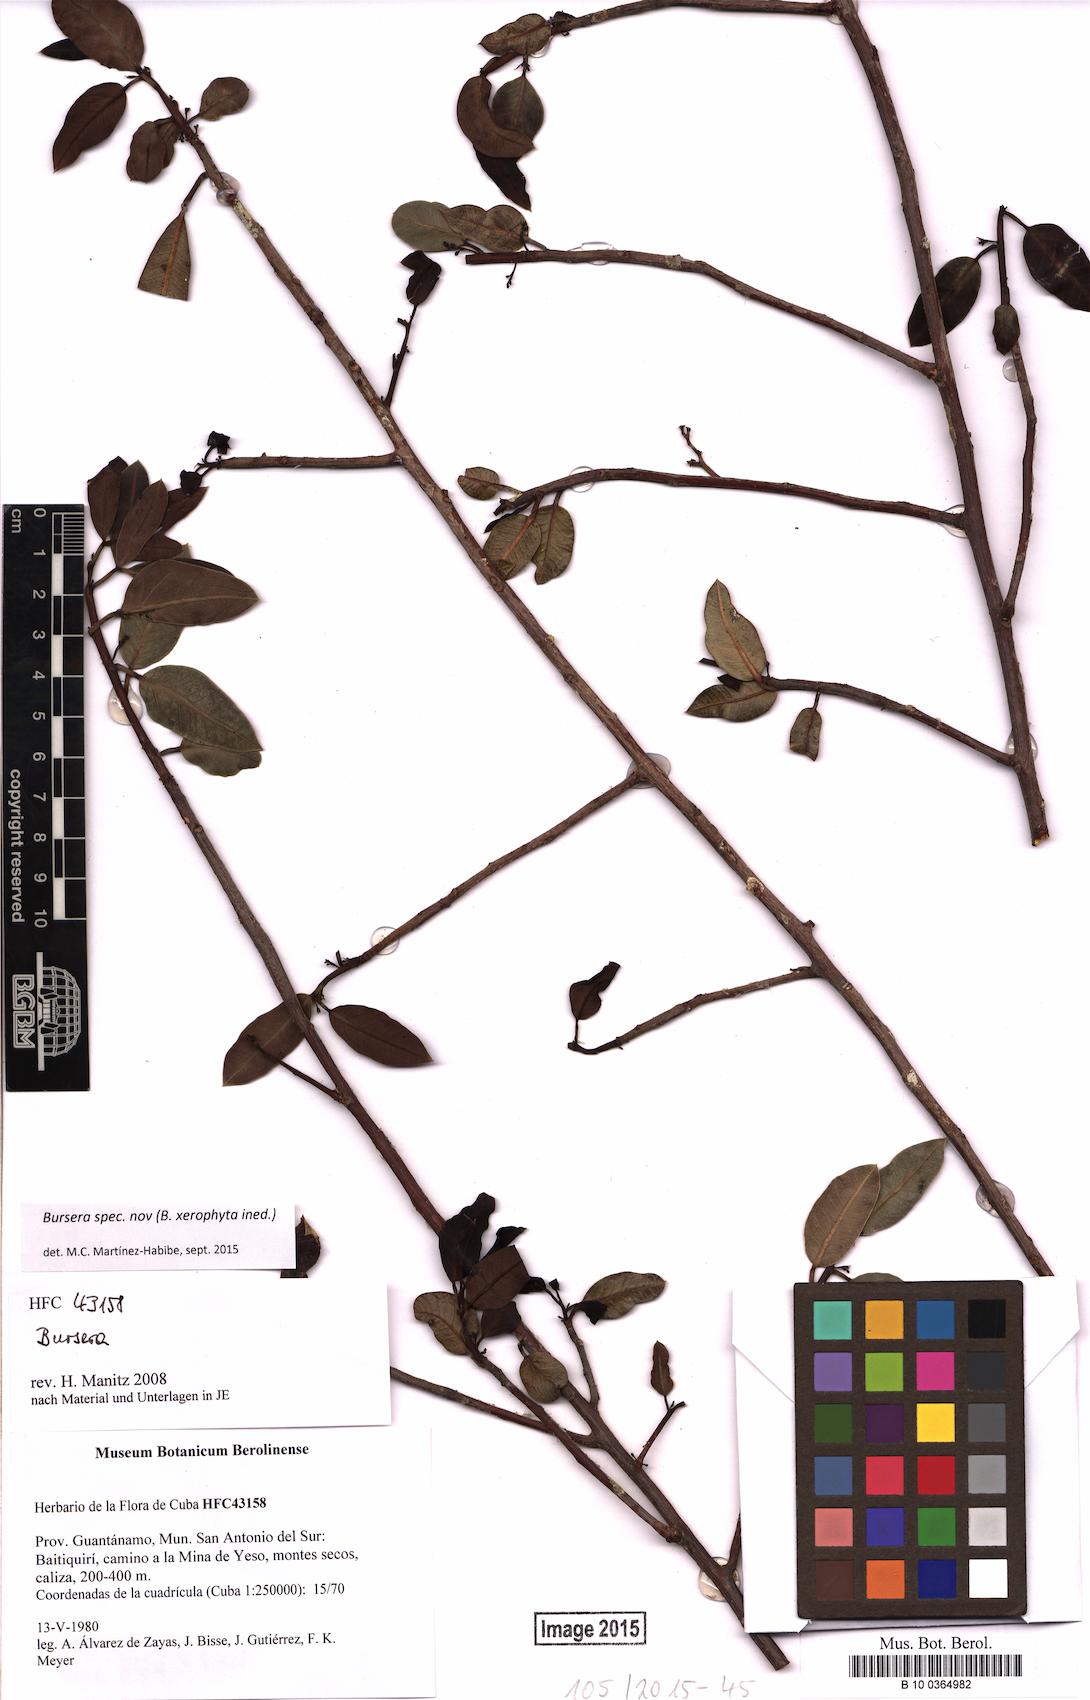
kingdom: Plantae
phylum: Tracheophyta
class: Magnoliopsida
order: Sapindales
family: Burseraceae
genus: Bursera
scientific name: Bursera
